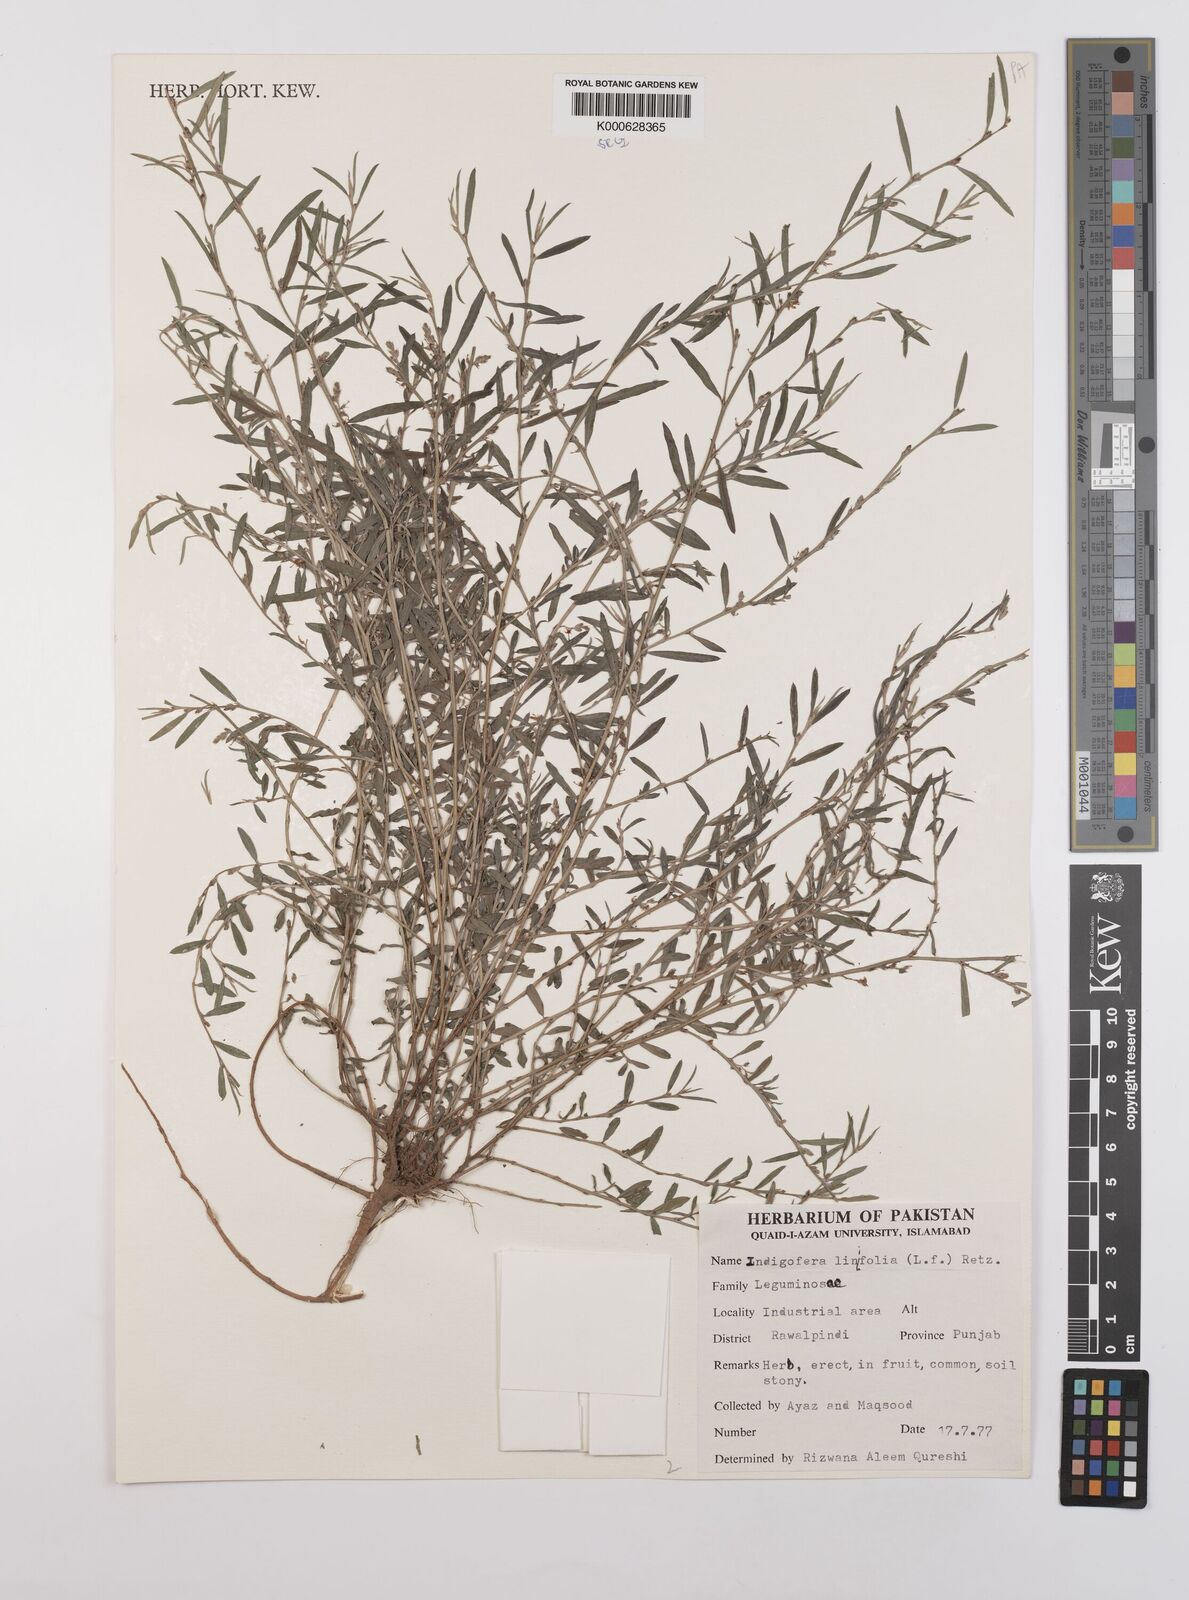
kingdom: Plantae
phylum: Tracheophyta
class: Magnoliopsida
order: Fabales
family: Fabaceae
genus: Indigofera
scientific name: Indigofera linifolia
